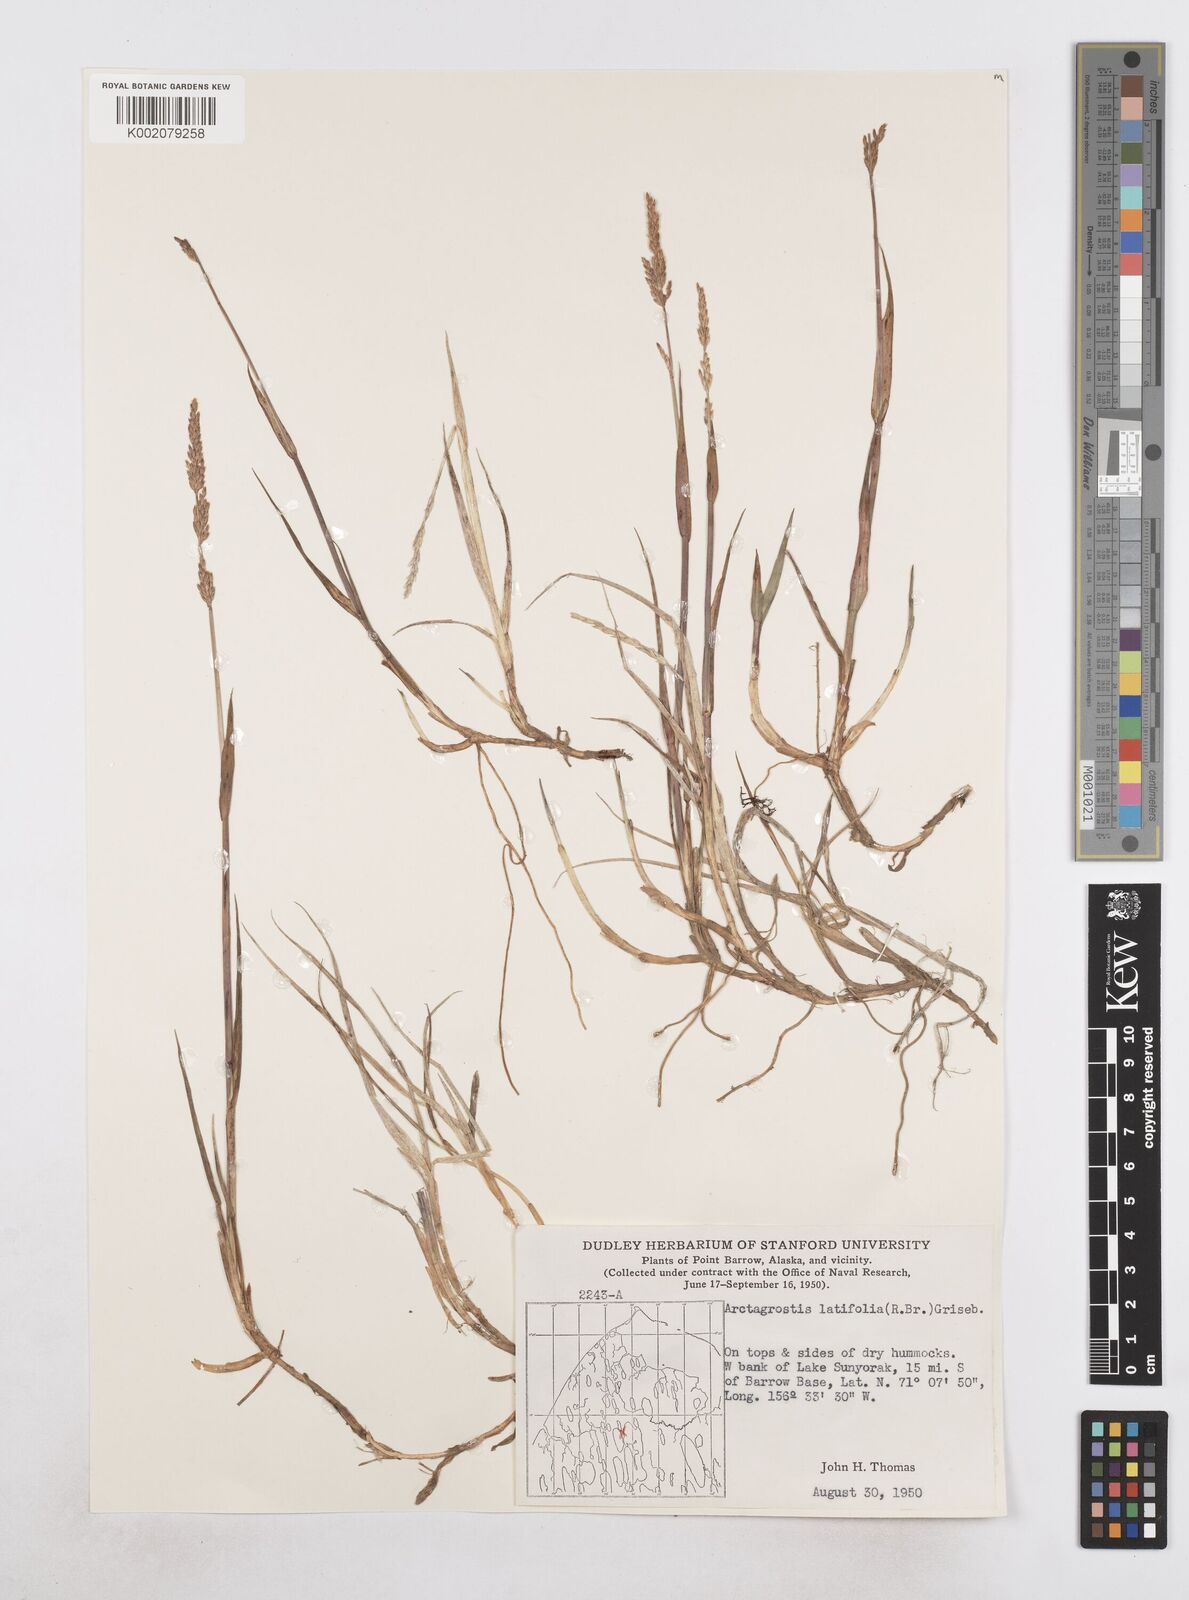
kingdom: Plantae
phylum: Tracheophyta
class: Liliopsida
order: Poales
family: Poaceae
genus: Arctagrostis
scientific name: Arctagrostis latifolia
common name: Arctic grass
